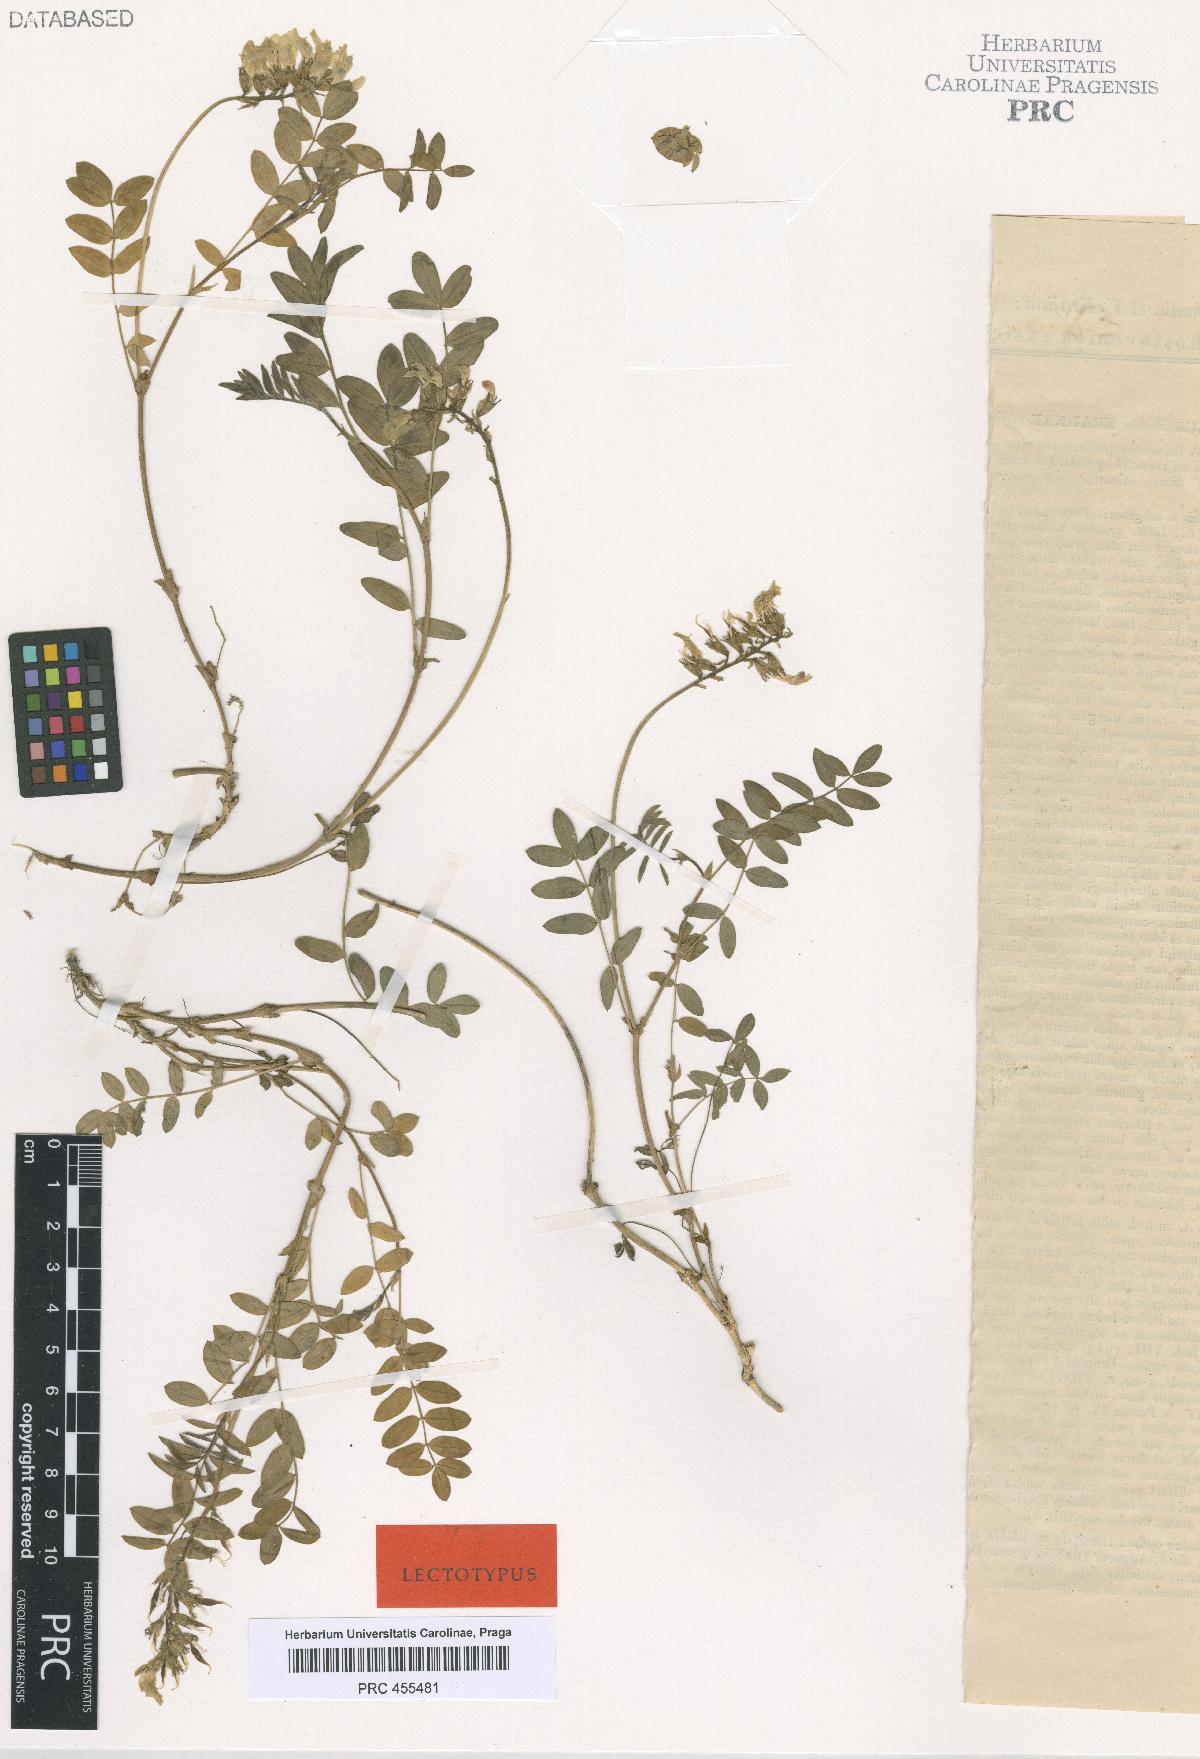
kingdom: Plantae
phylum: Tracheophyta
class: Magnoliopsida
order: Fabales
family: Fabaceae
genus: Astragalus
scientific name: Astragalus australis
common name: Indian milk-vetch
